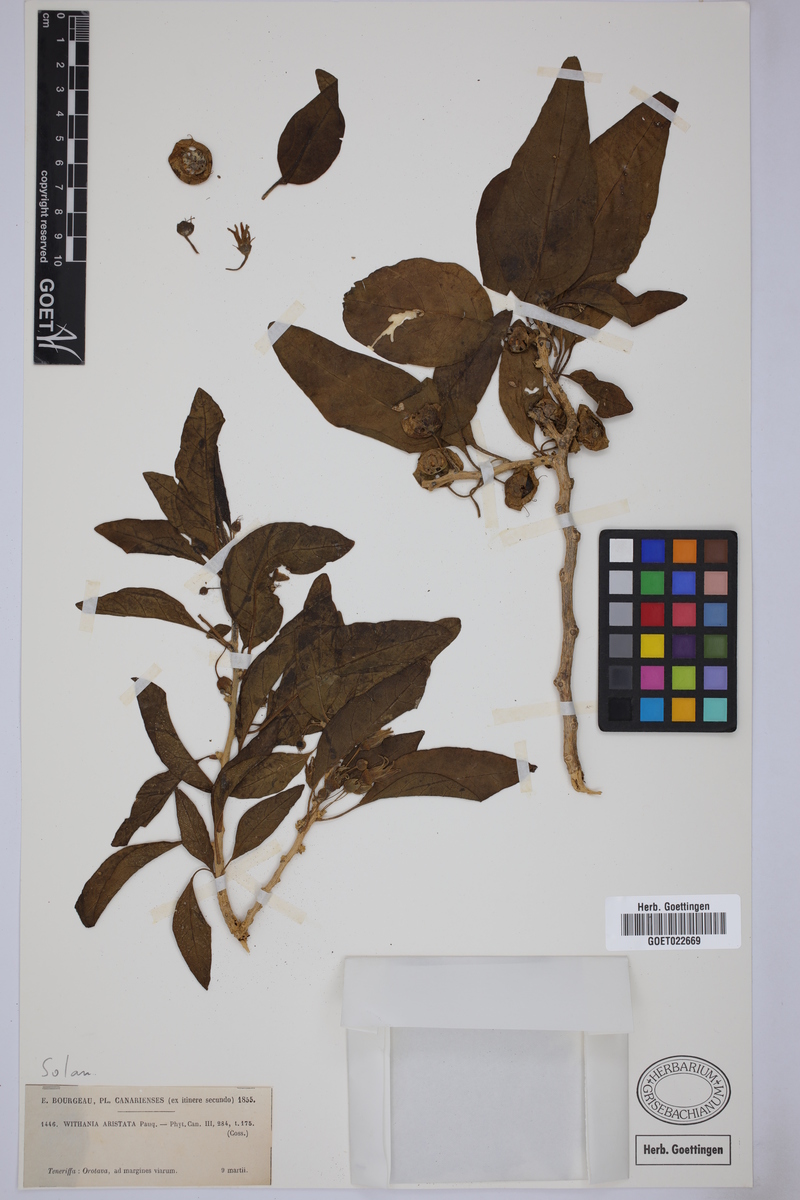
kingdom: Plantae
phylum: Tracheophyta
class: Magnoliopsida
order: Solanales
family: Solanaceae
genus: Withania
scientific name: Withania aristata
